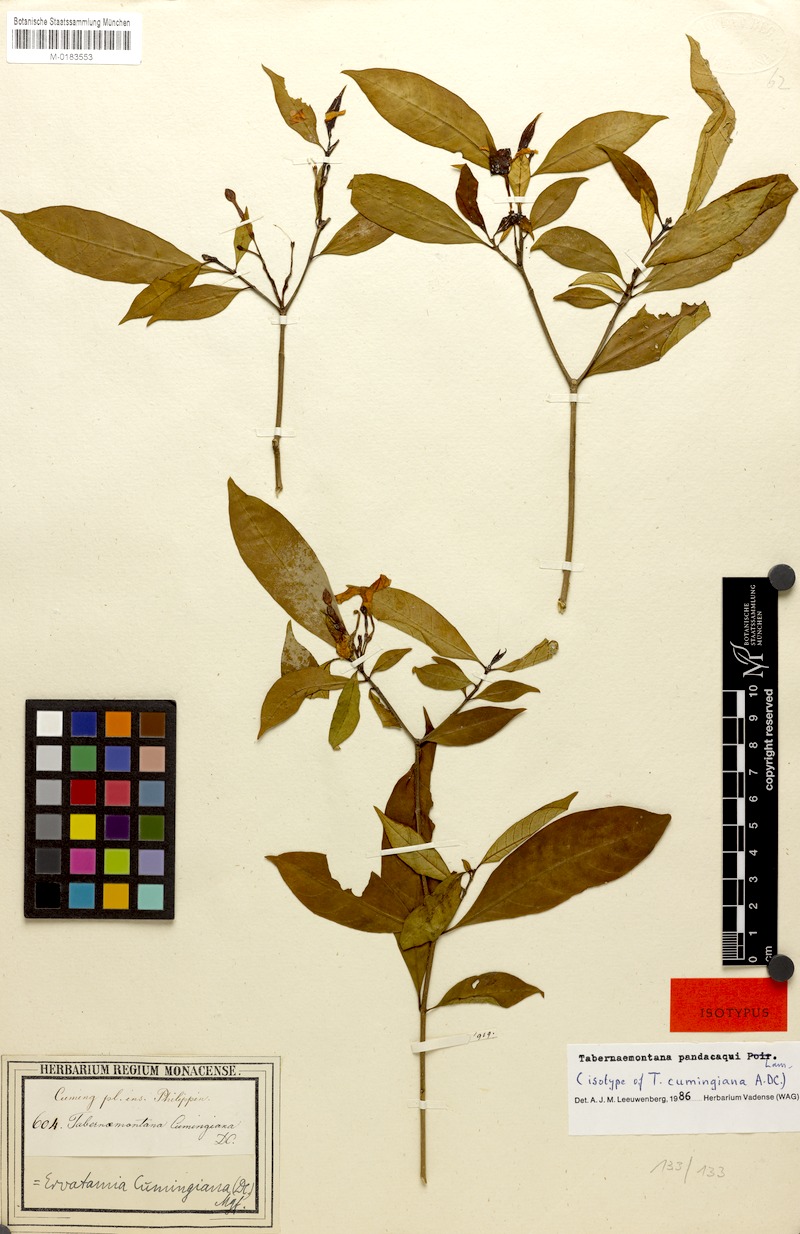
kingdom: Plantae
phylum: Tracheophyta
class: Magnoliopsida
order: Gentianales
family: Apocynaceae
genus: Tabernaemontana
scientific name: Tabernaemontana pandacaqui
